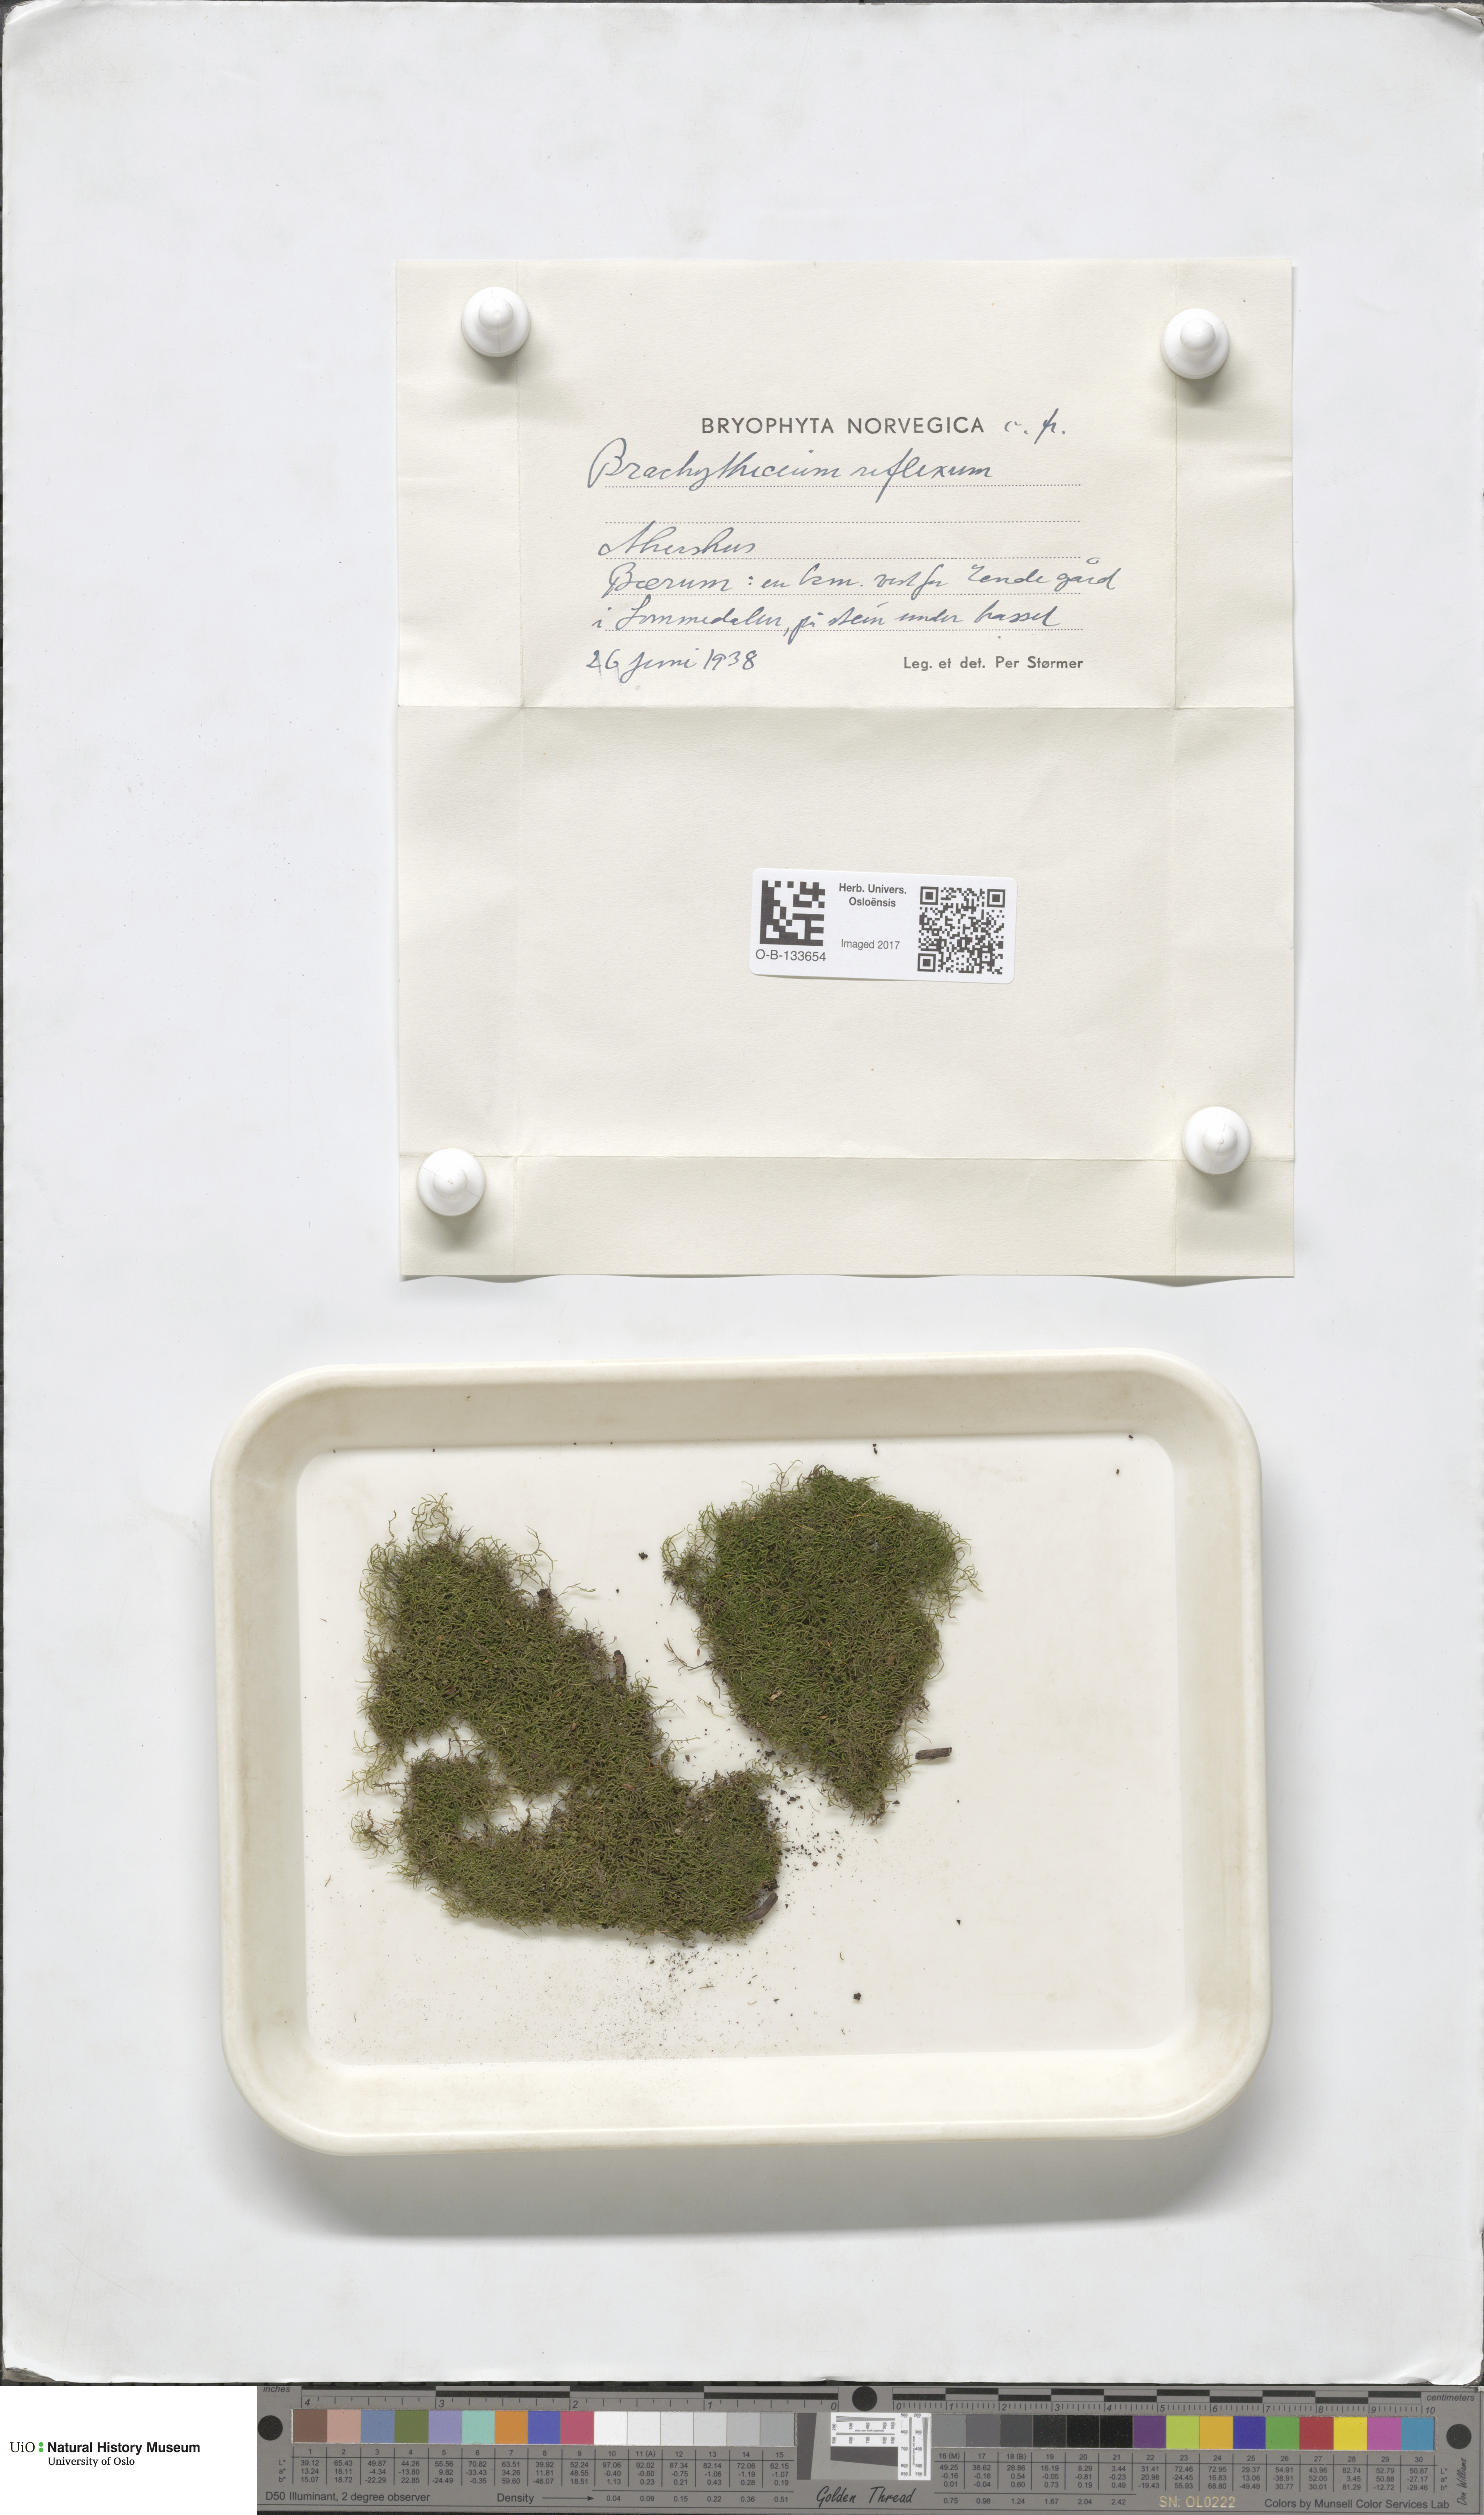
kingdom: Plantae
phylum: Bryophyta
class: Bryopsida
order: Hypnales
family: Brachytheciaceae
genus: Sciuro-hypnum
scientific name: Sciuro-hypnum reflexum
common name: Reflexed feather-moss
